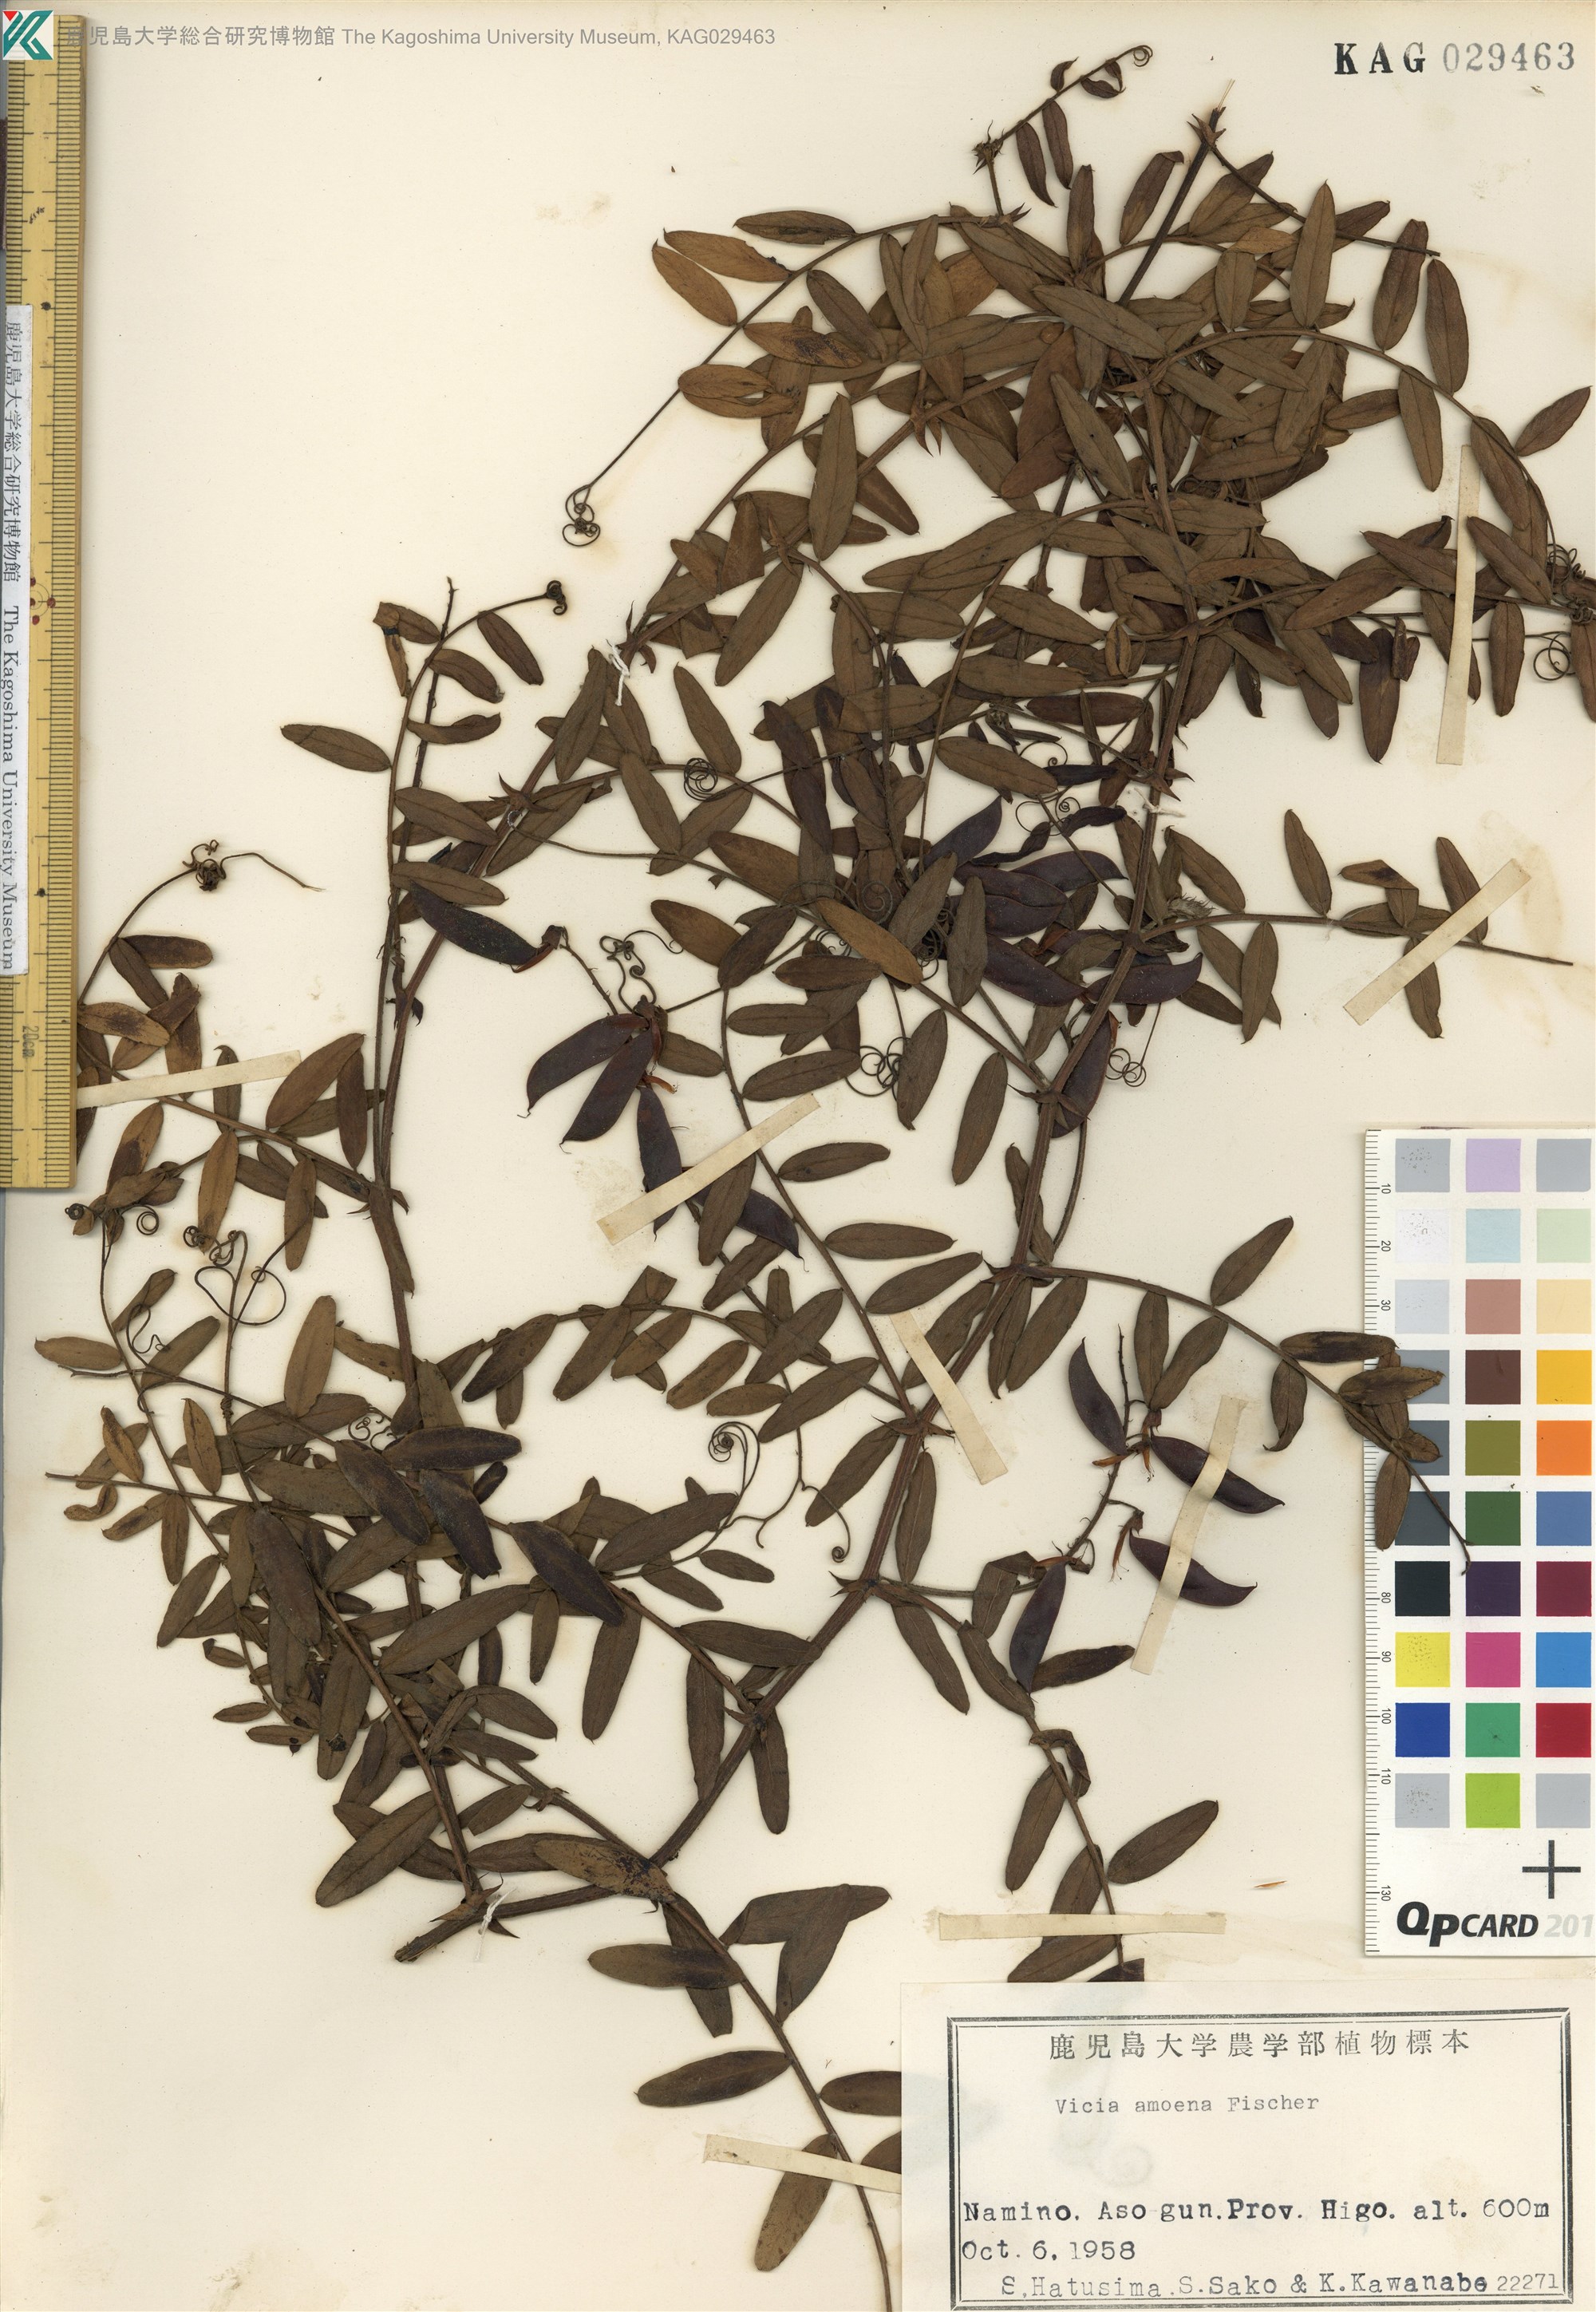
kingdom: Plantae
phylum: Tracheophyta
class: Magnoliopsida
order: Fabales
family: Fabaceae
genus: Vicia
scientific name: Vicia amoena
